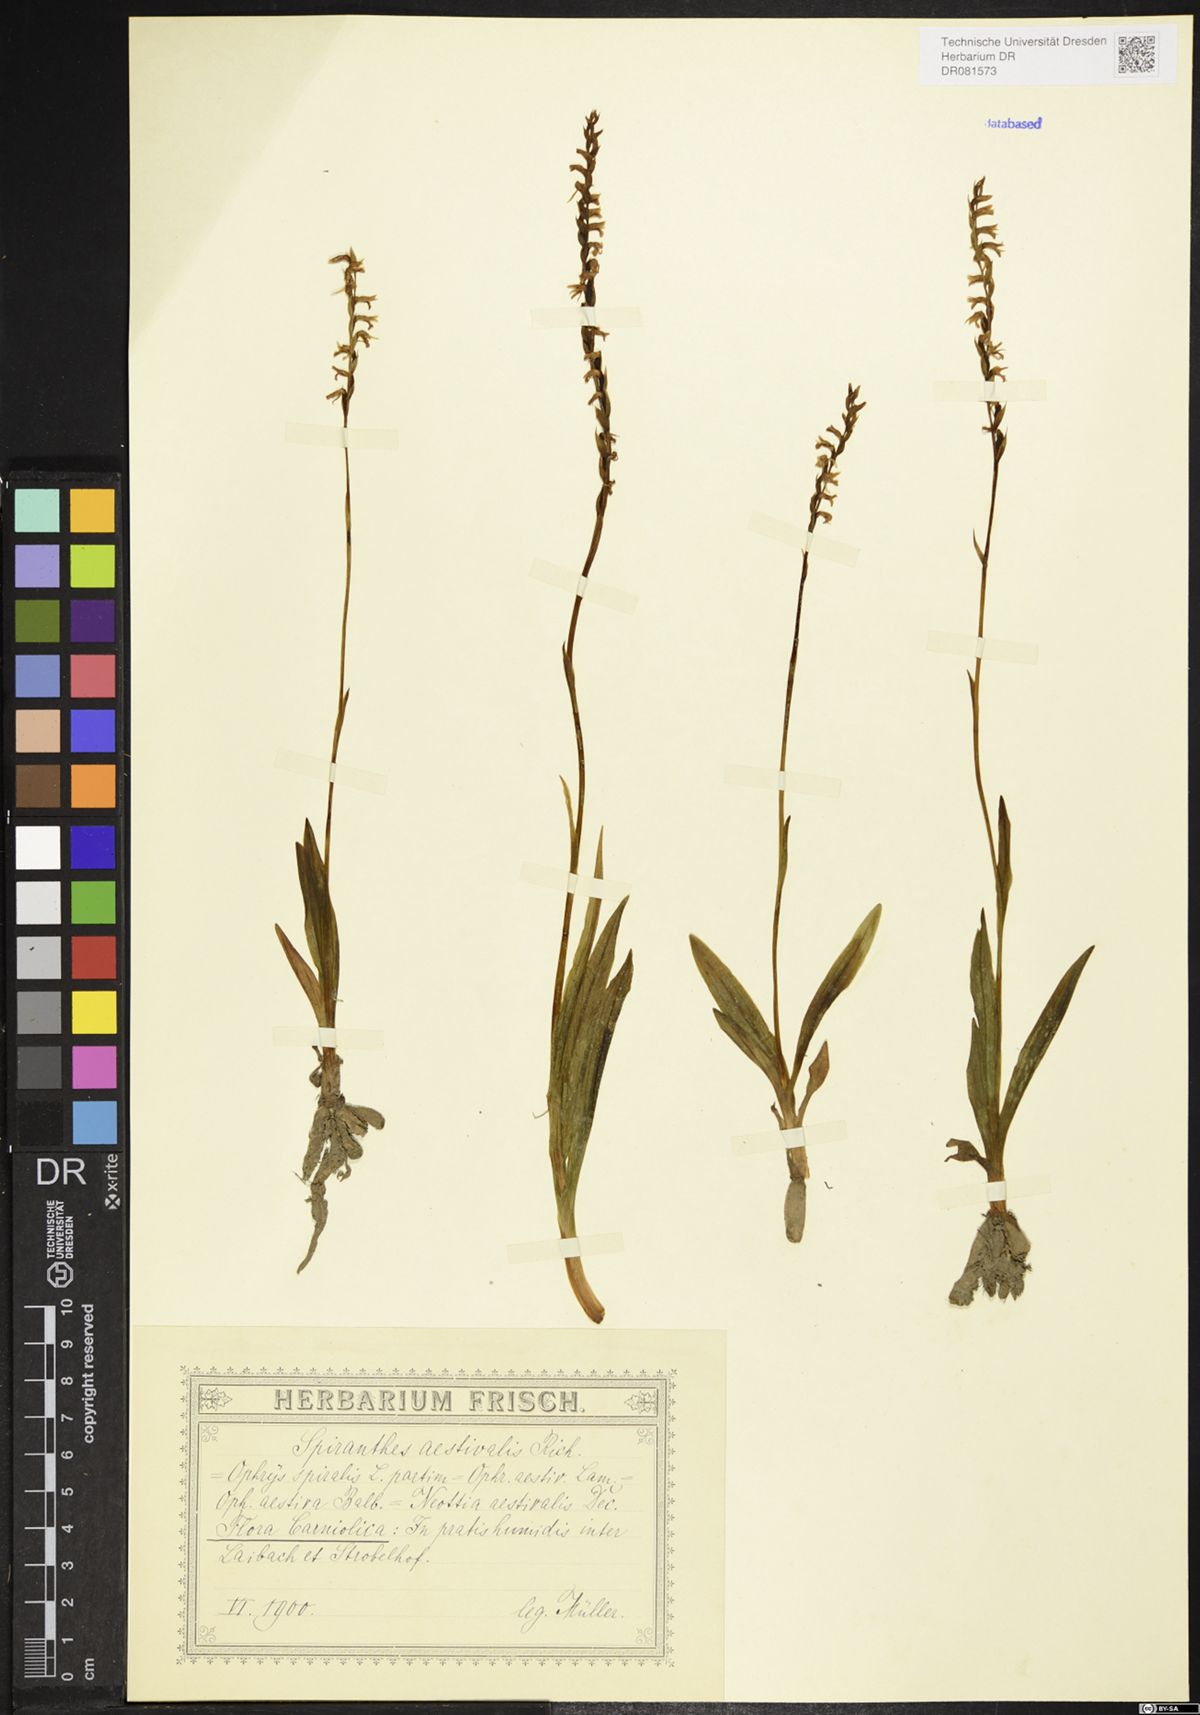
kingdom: Plantae
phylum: Tracheophyta
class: Liliopsida
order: Asparagales
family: Orchidaceae
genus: Spiranthes
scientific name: Spiranthes aestivalis
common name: Summer lady's-tresses
